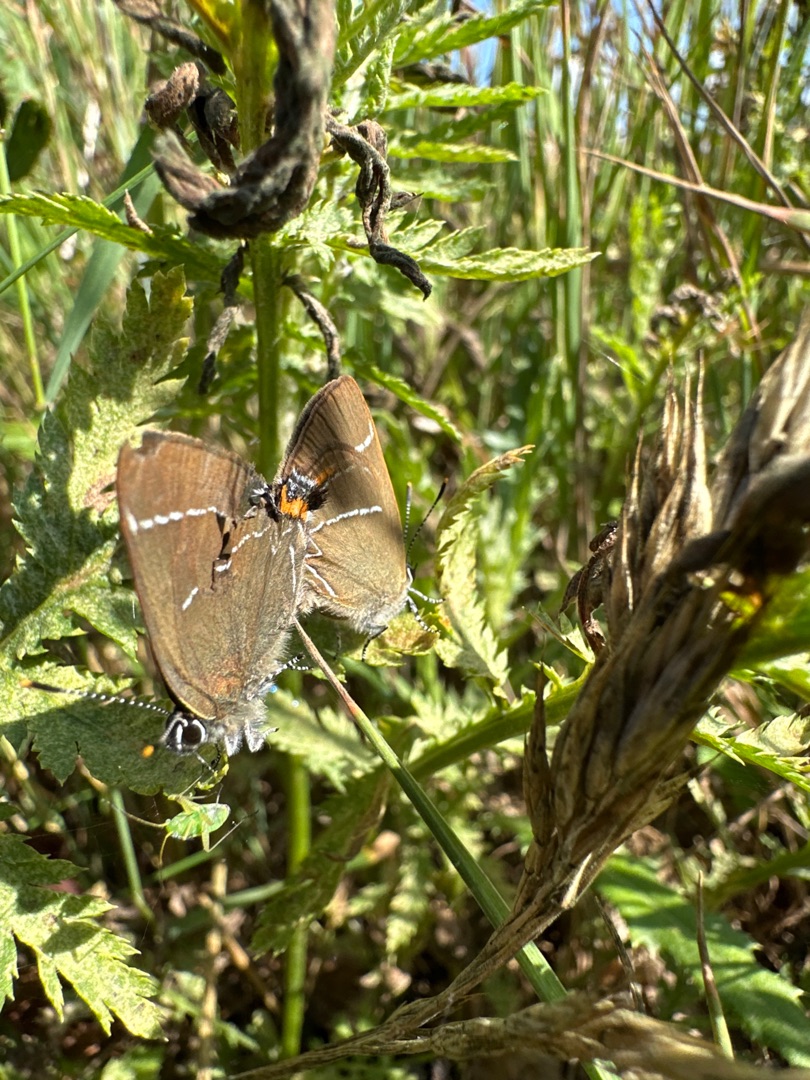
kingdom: Animalia
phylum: Arthropoda
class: Insecta
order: Lepidoptera
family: Lycaenidae
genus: Satyrium
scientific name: Satyrium w-album
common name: Det hvide W
